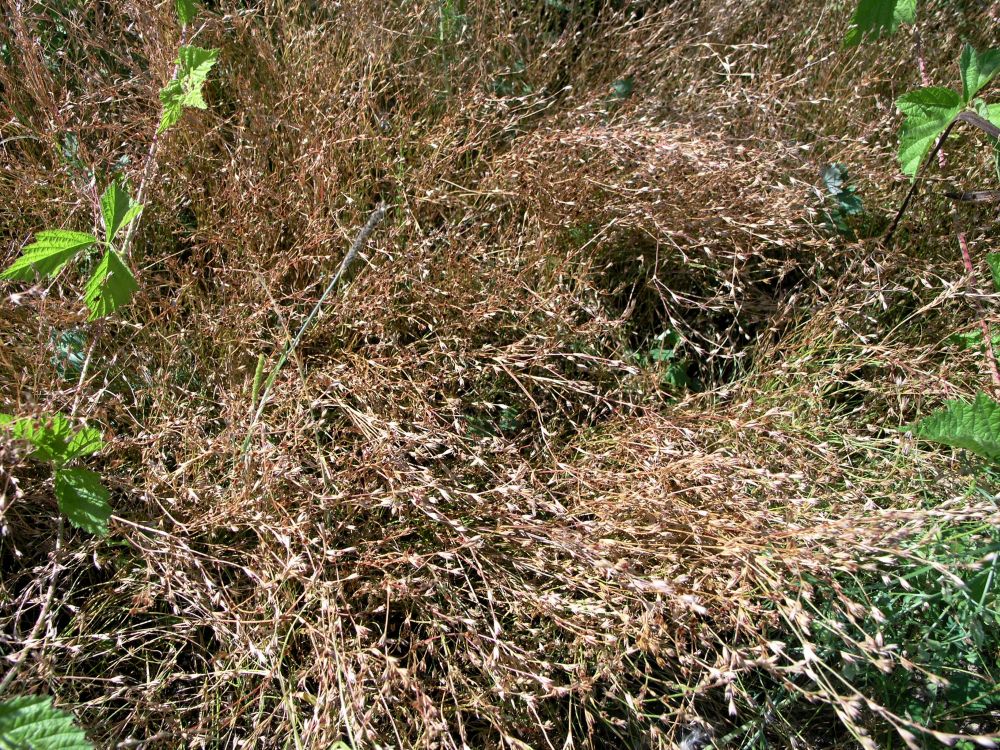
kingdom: Plantae
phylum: Tracheophyta
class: Liliopsida
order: Poales
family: Juncaceae
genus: Juncus
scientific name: Juncus bufonius
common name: Toad rush
